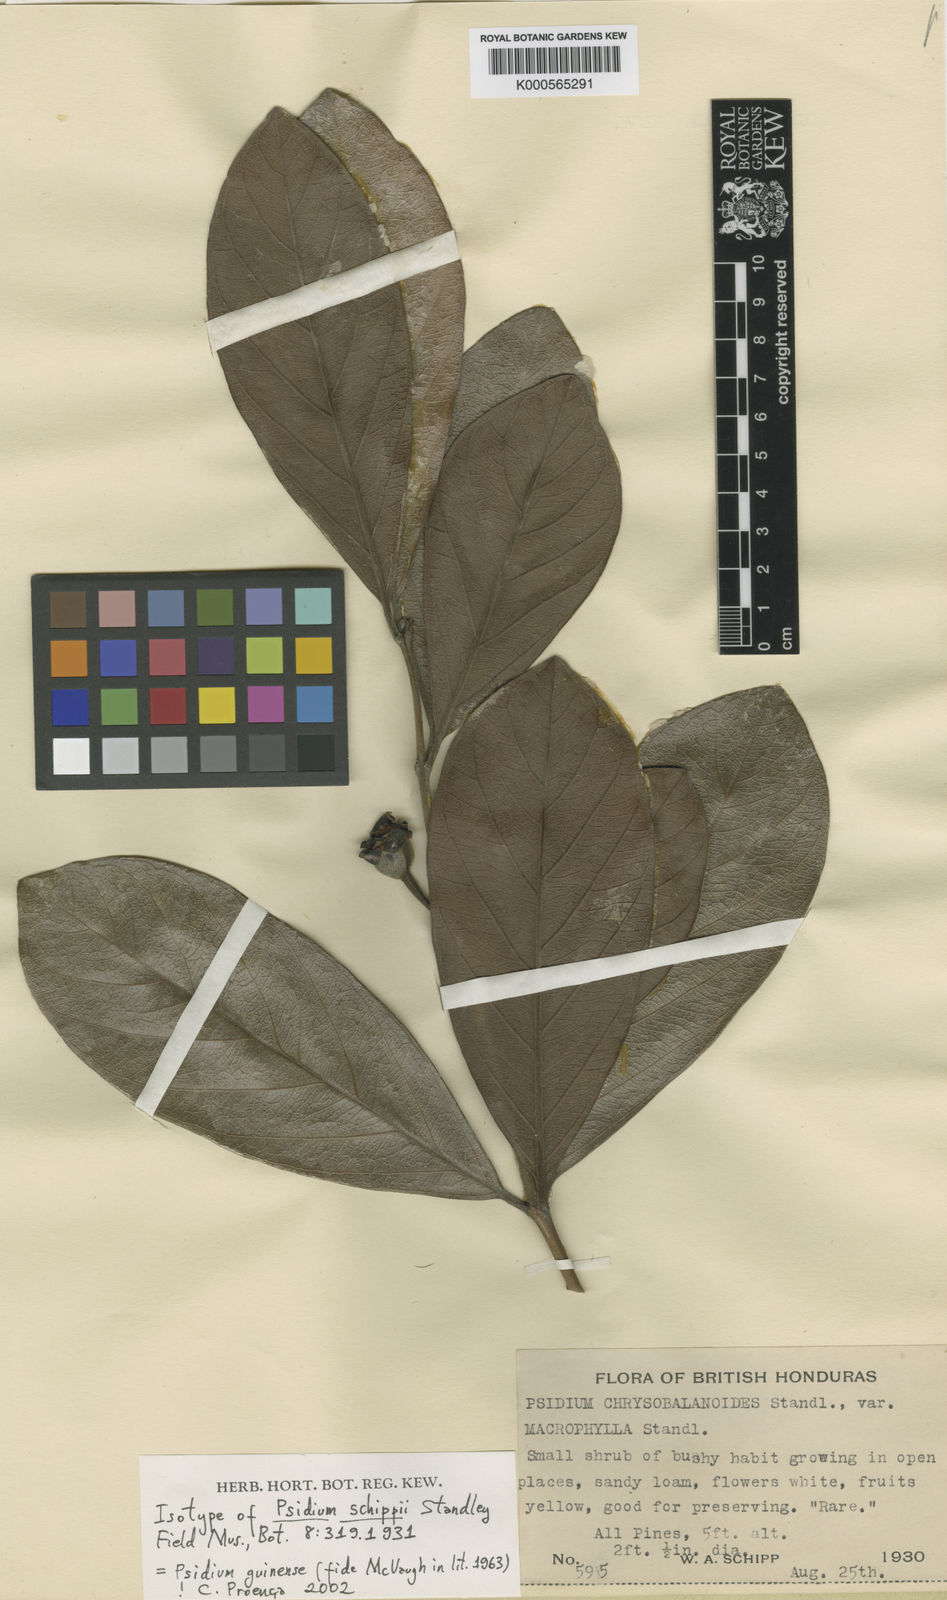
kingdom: Plantae
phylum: Tracheophyta
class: Magnoliopsida
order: Myrtales
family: Myrtaceae
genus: Psidium
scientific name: Psidium guineense
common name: Brazilian guava
